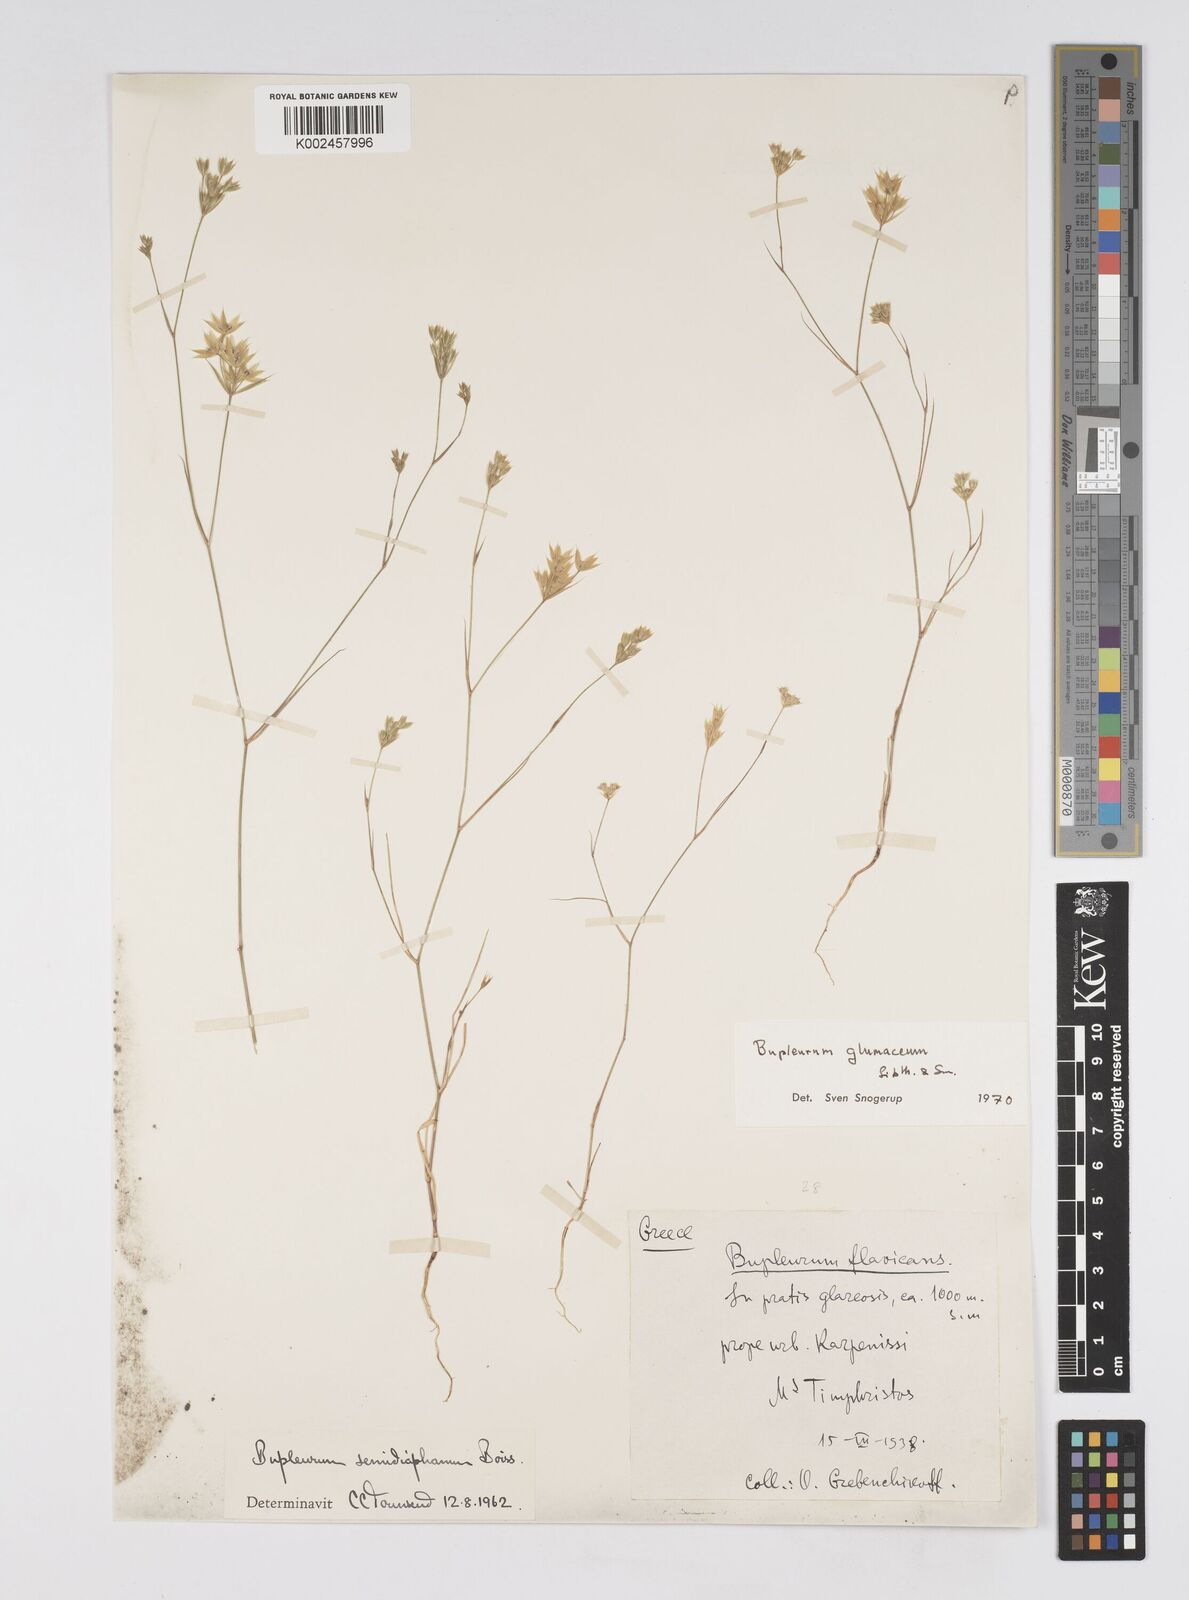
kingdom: Plantae
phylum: Tracheophyta
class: Magnoliopsida
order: Apiales
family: Apiaceae
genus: Bupleurum
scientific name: Bupleurum glumaceum
